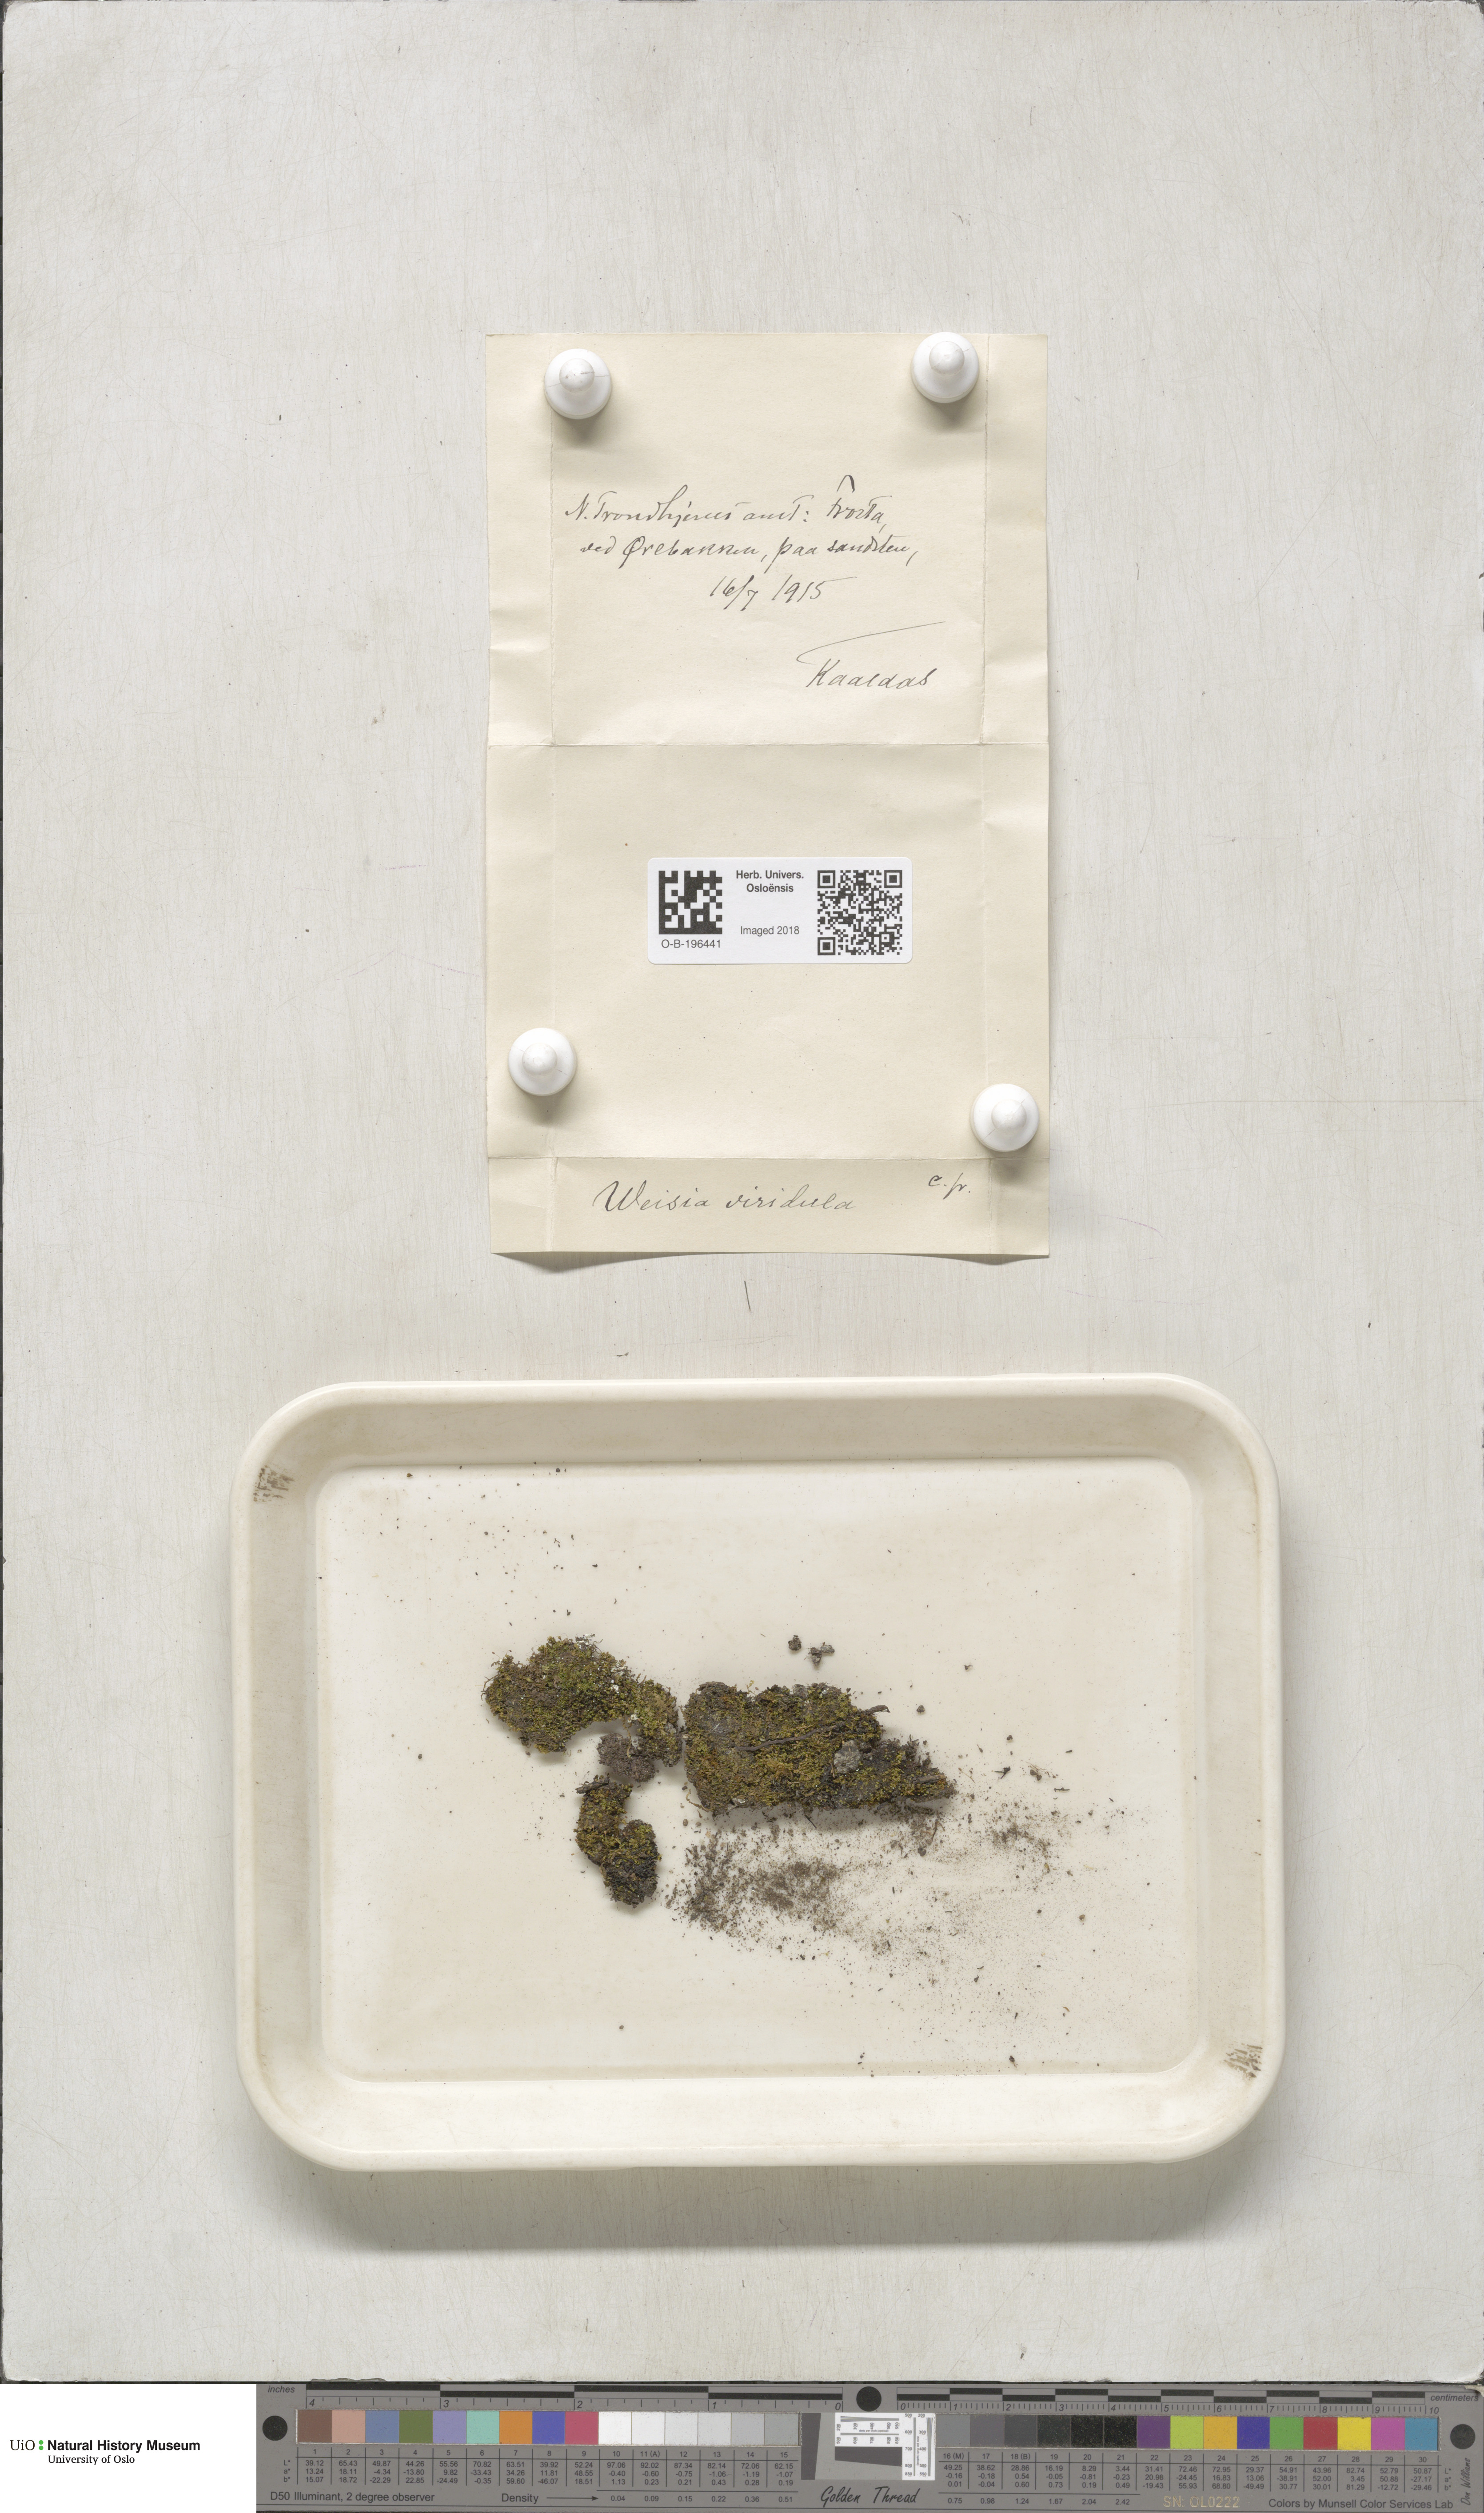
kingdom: Plantae
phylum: Bryophyta
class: Bryopsida
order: Pottiales
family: Pottiaceae
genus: Weissia
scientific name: Weissia controversa
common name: Green-tufted stubble moss
